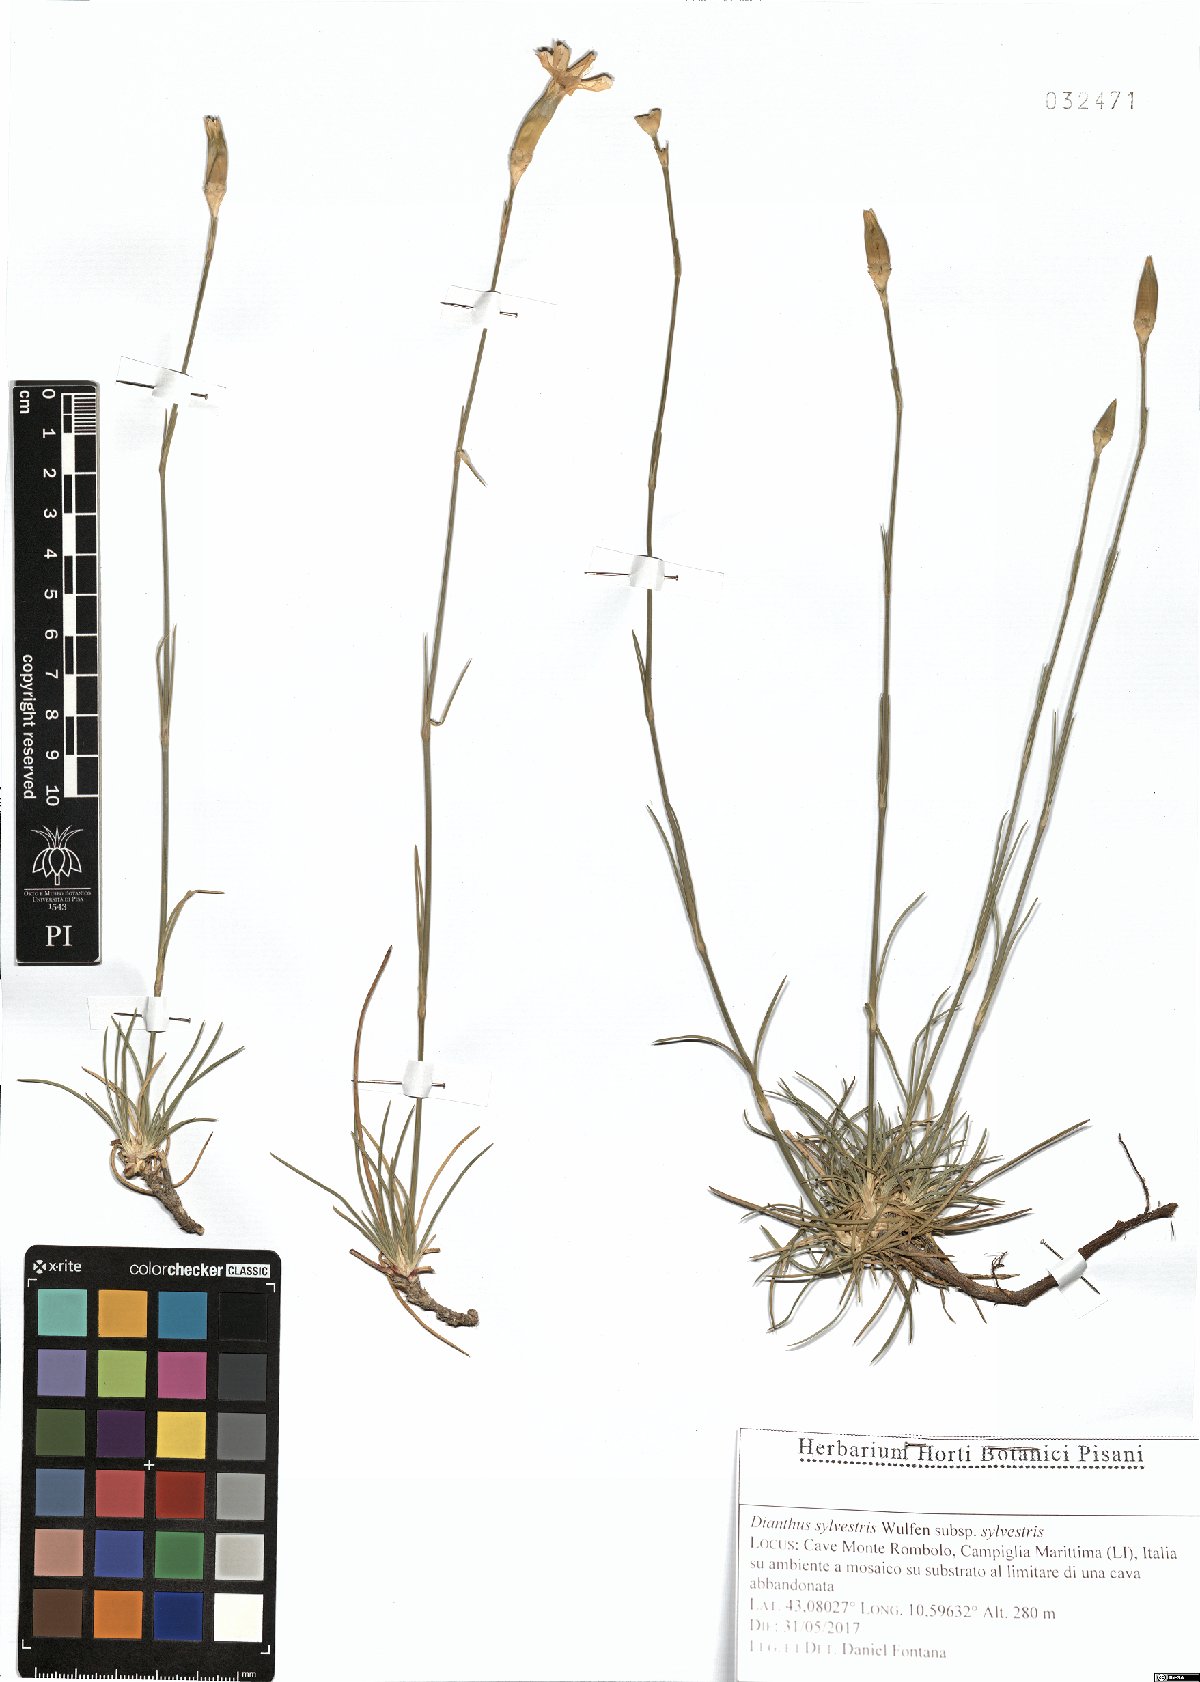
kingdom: Plantae
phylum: Tracheophyta
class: Magnoliopsida
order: Caryophyllales
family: Caryophyllaceae
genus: Dianthus
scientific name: Dianthus sylvestris
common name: Wood pink
